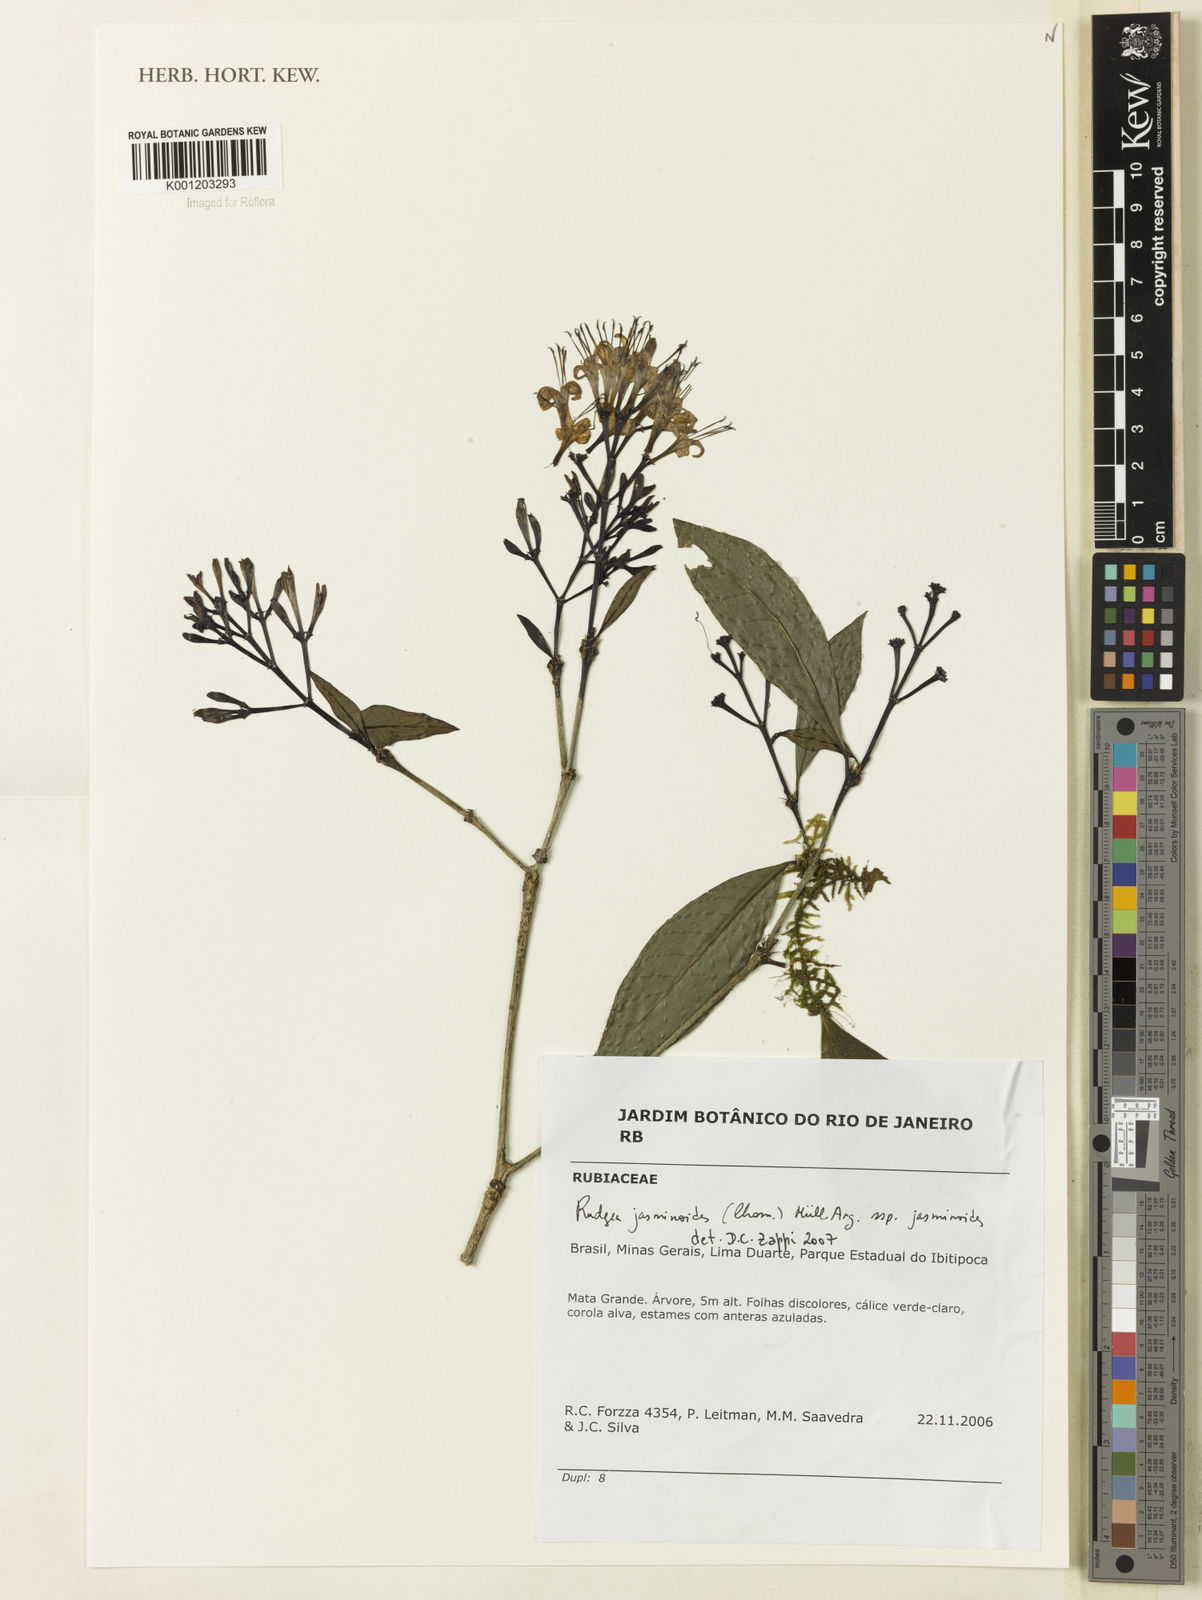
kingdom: Plantae
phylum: Tracheophyta
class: Magnoliopsida
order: Gentianales
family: Rubiaceae
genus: Rudgea
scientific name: Rudgea
